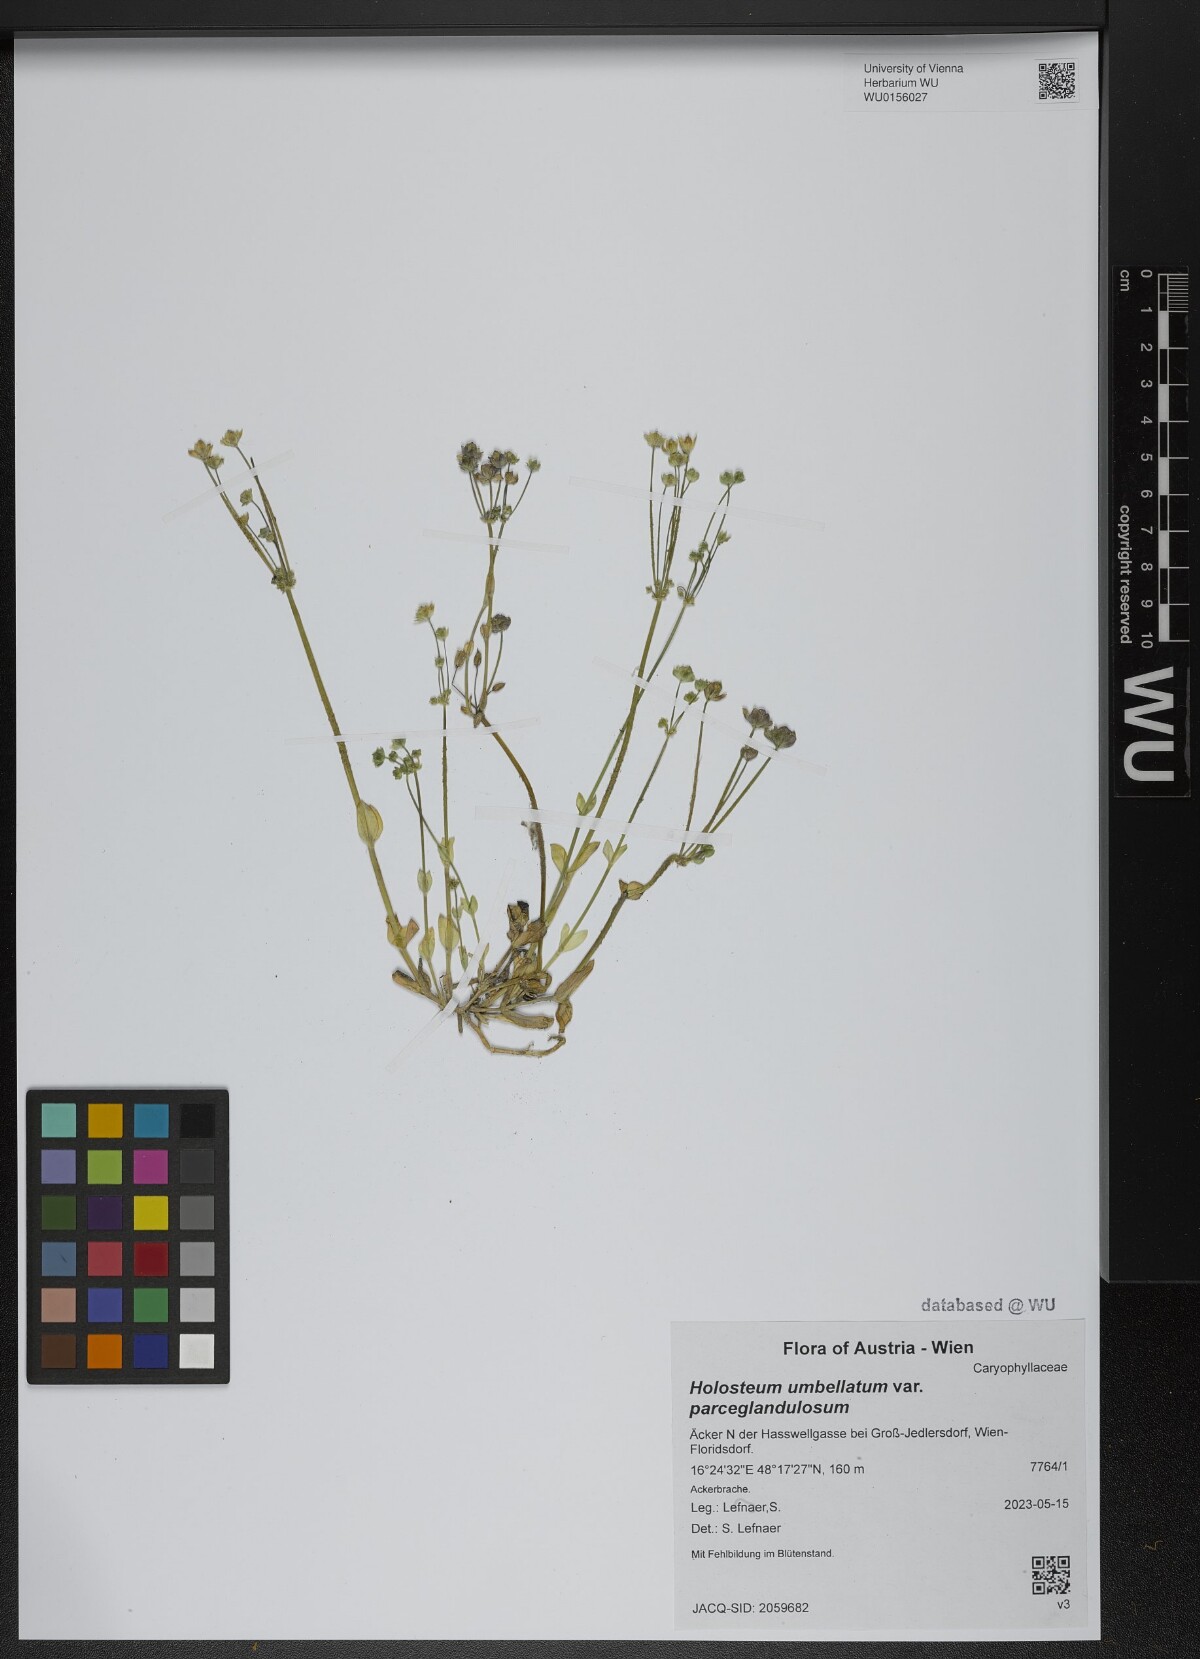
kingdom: Plantae
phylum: Tracheophyta
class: Magnoliopsida
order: Caryophyllales
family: Caryophyllaceae
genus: Holosteum
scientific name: Holosteum umbellatum
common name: Jagged chickweed
